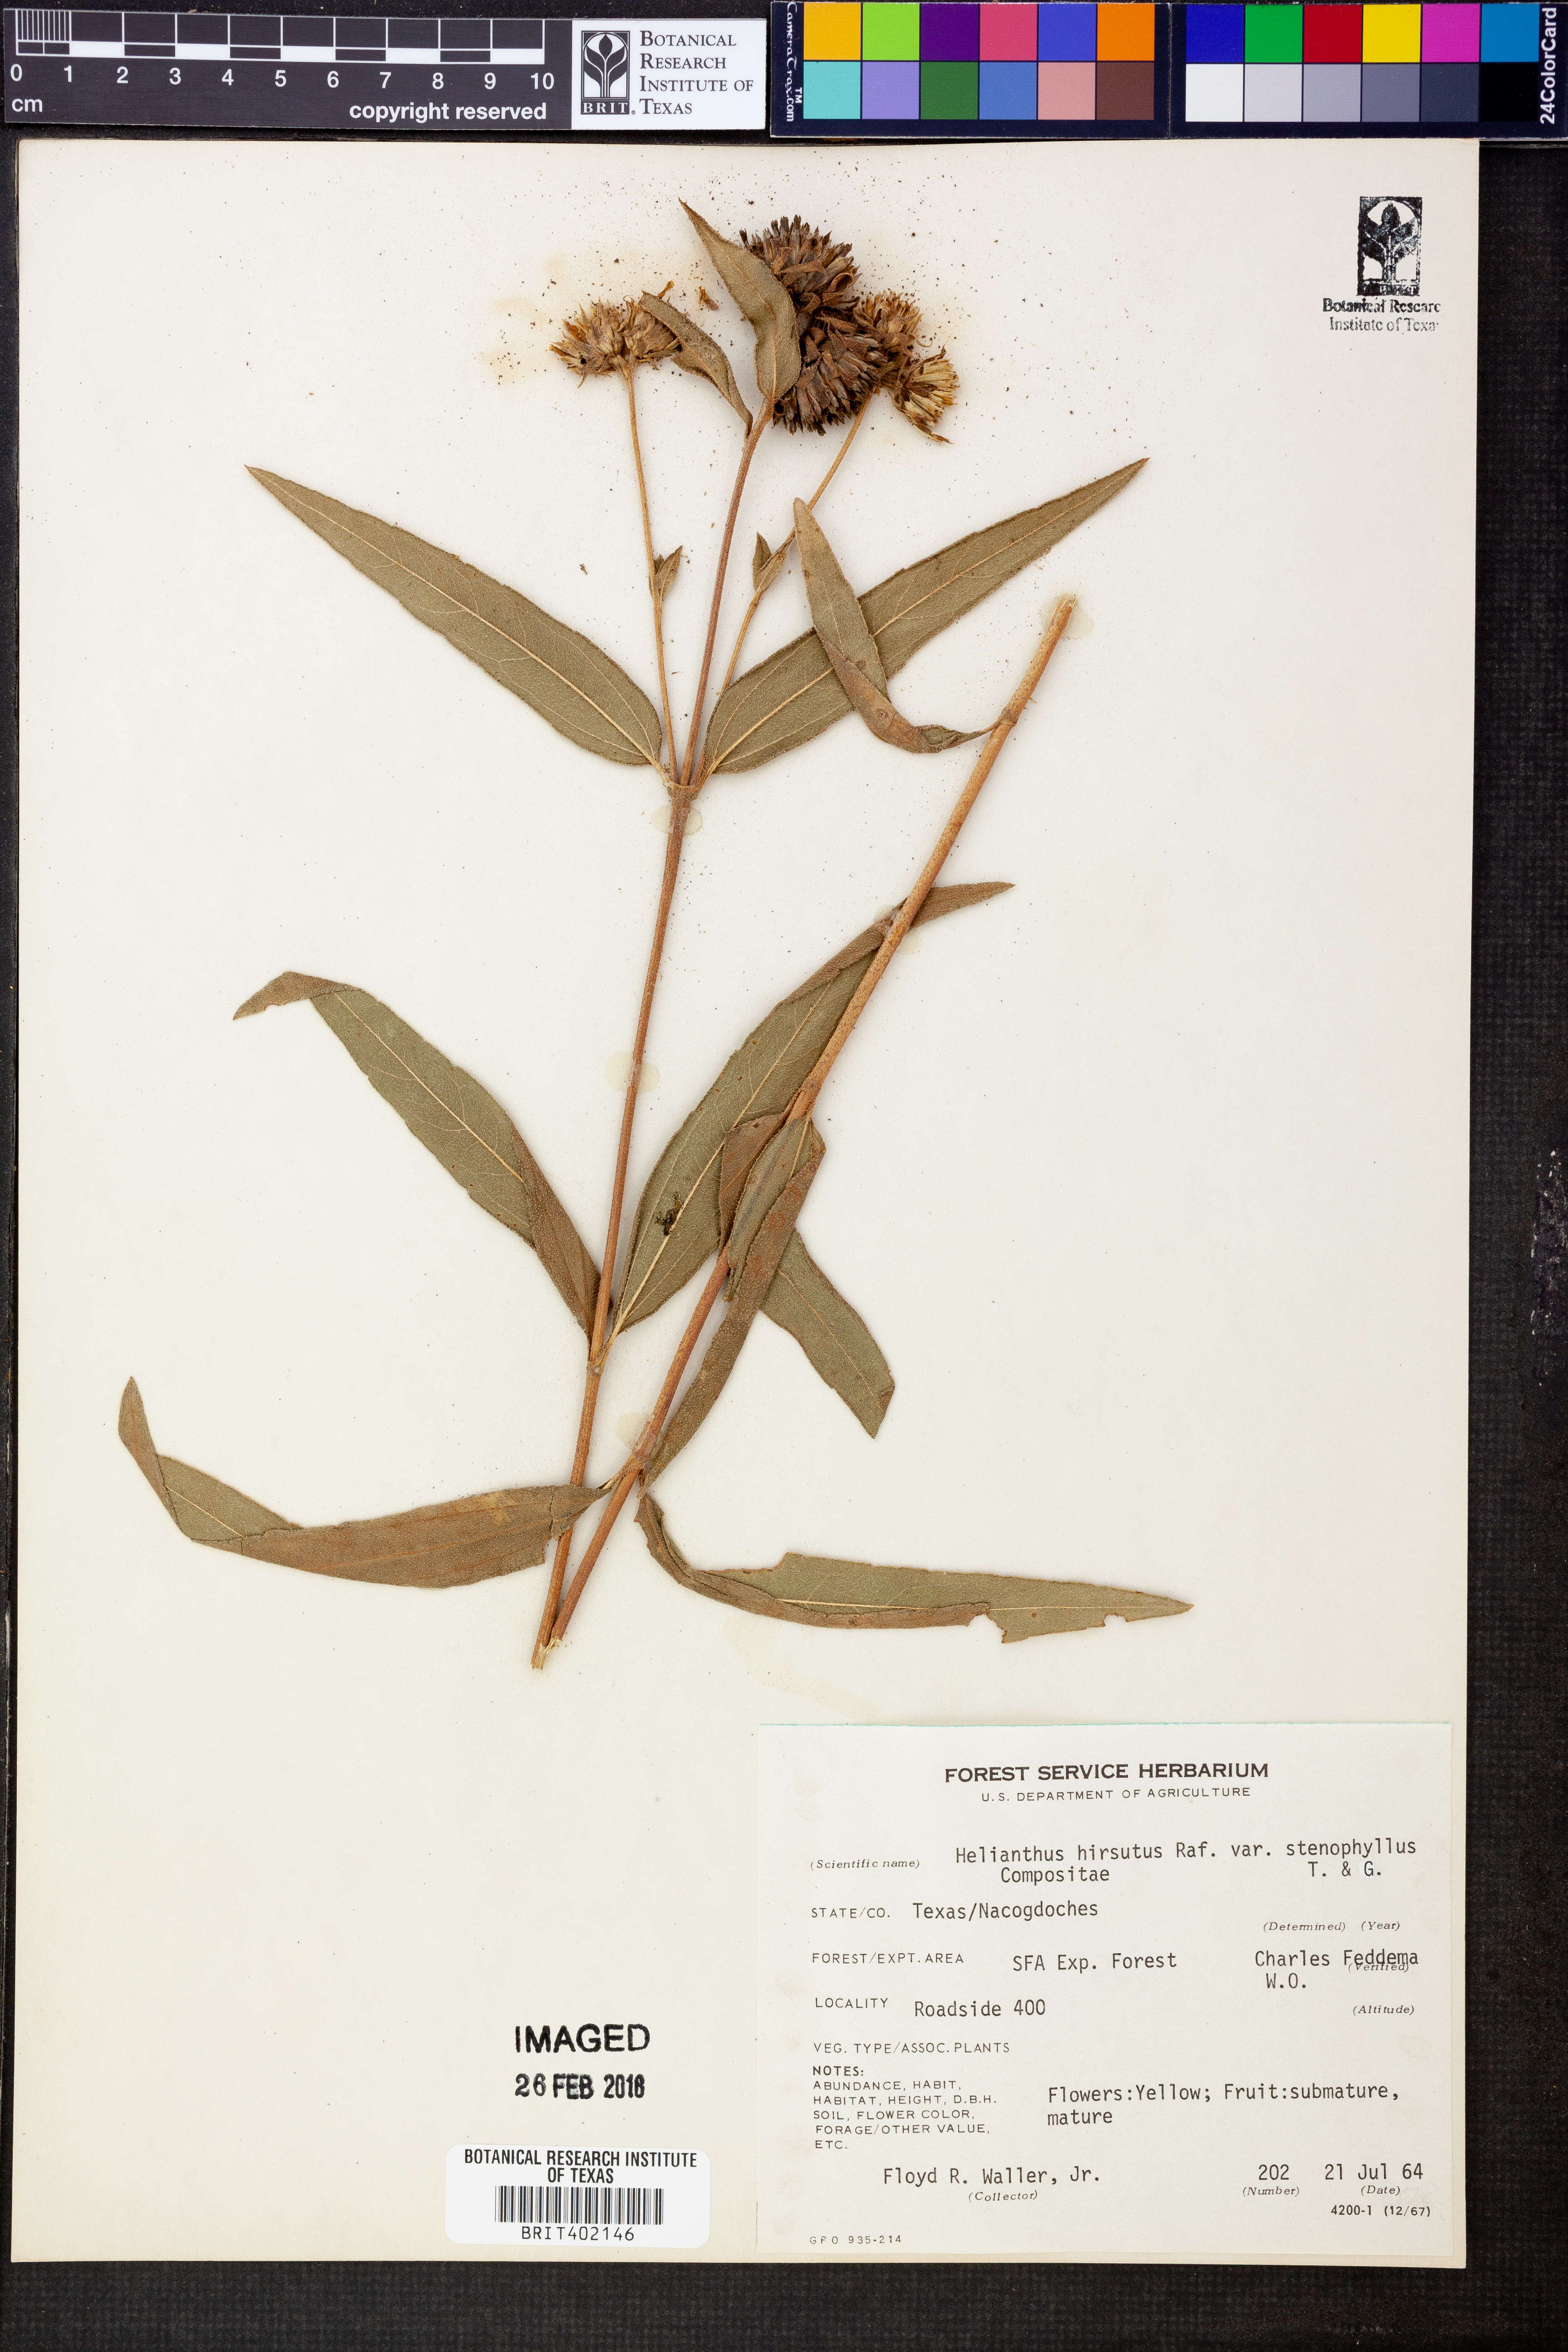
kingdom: Plantae
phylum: Tracheophyta
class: Magnoliopsida
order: Asterales
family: Asteraceae
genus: Helianthus
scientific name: Helianthus hirsutus
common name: Hairy sunflower
